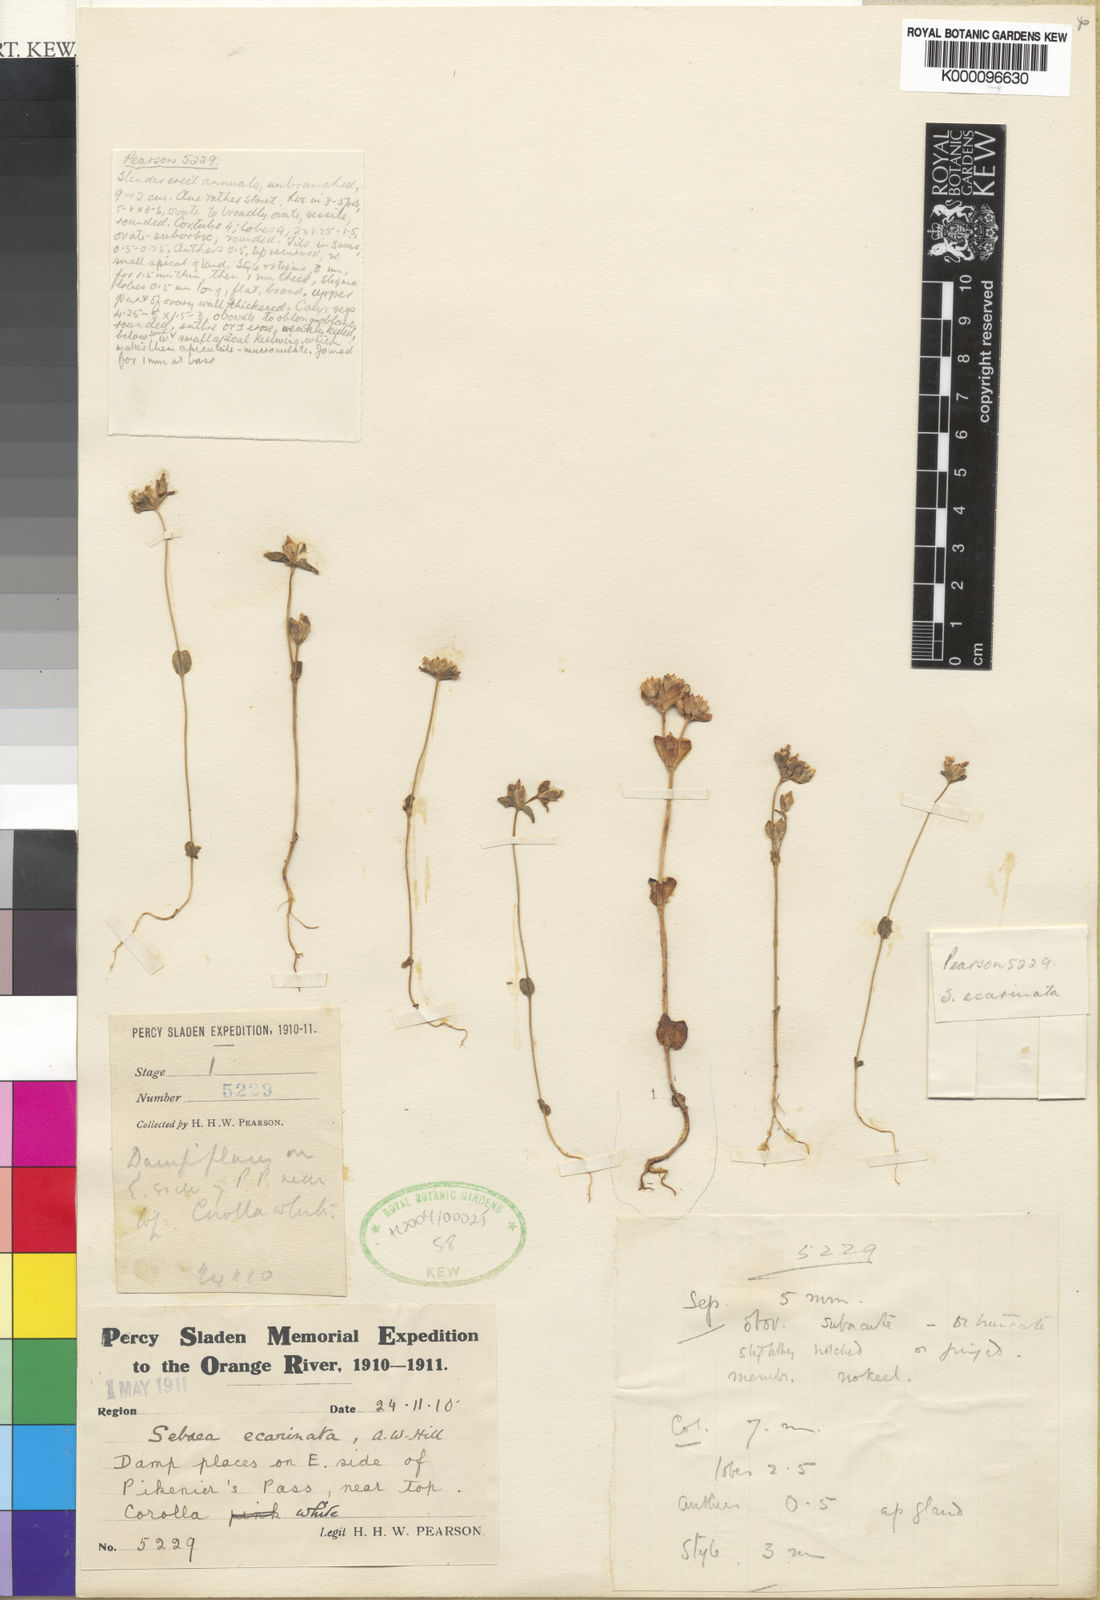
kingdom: Plantae
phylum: Tracheophyta
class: Magnoliopsida
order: Gentianales
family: Gentianaceae
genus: Sebaea
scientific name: Sebaea
